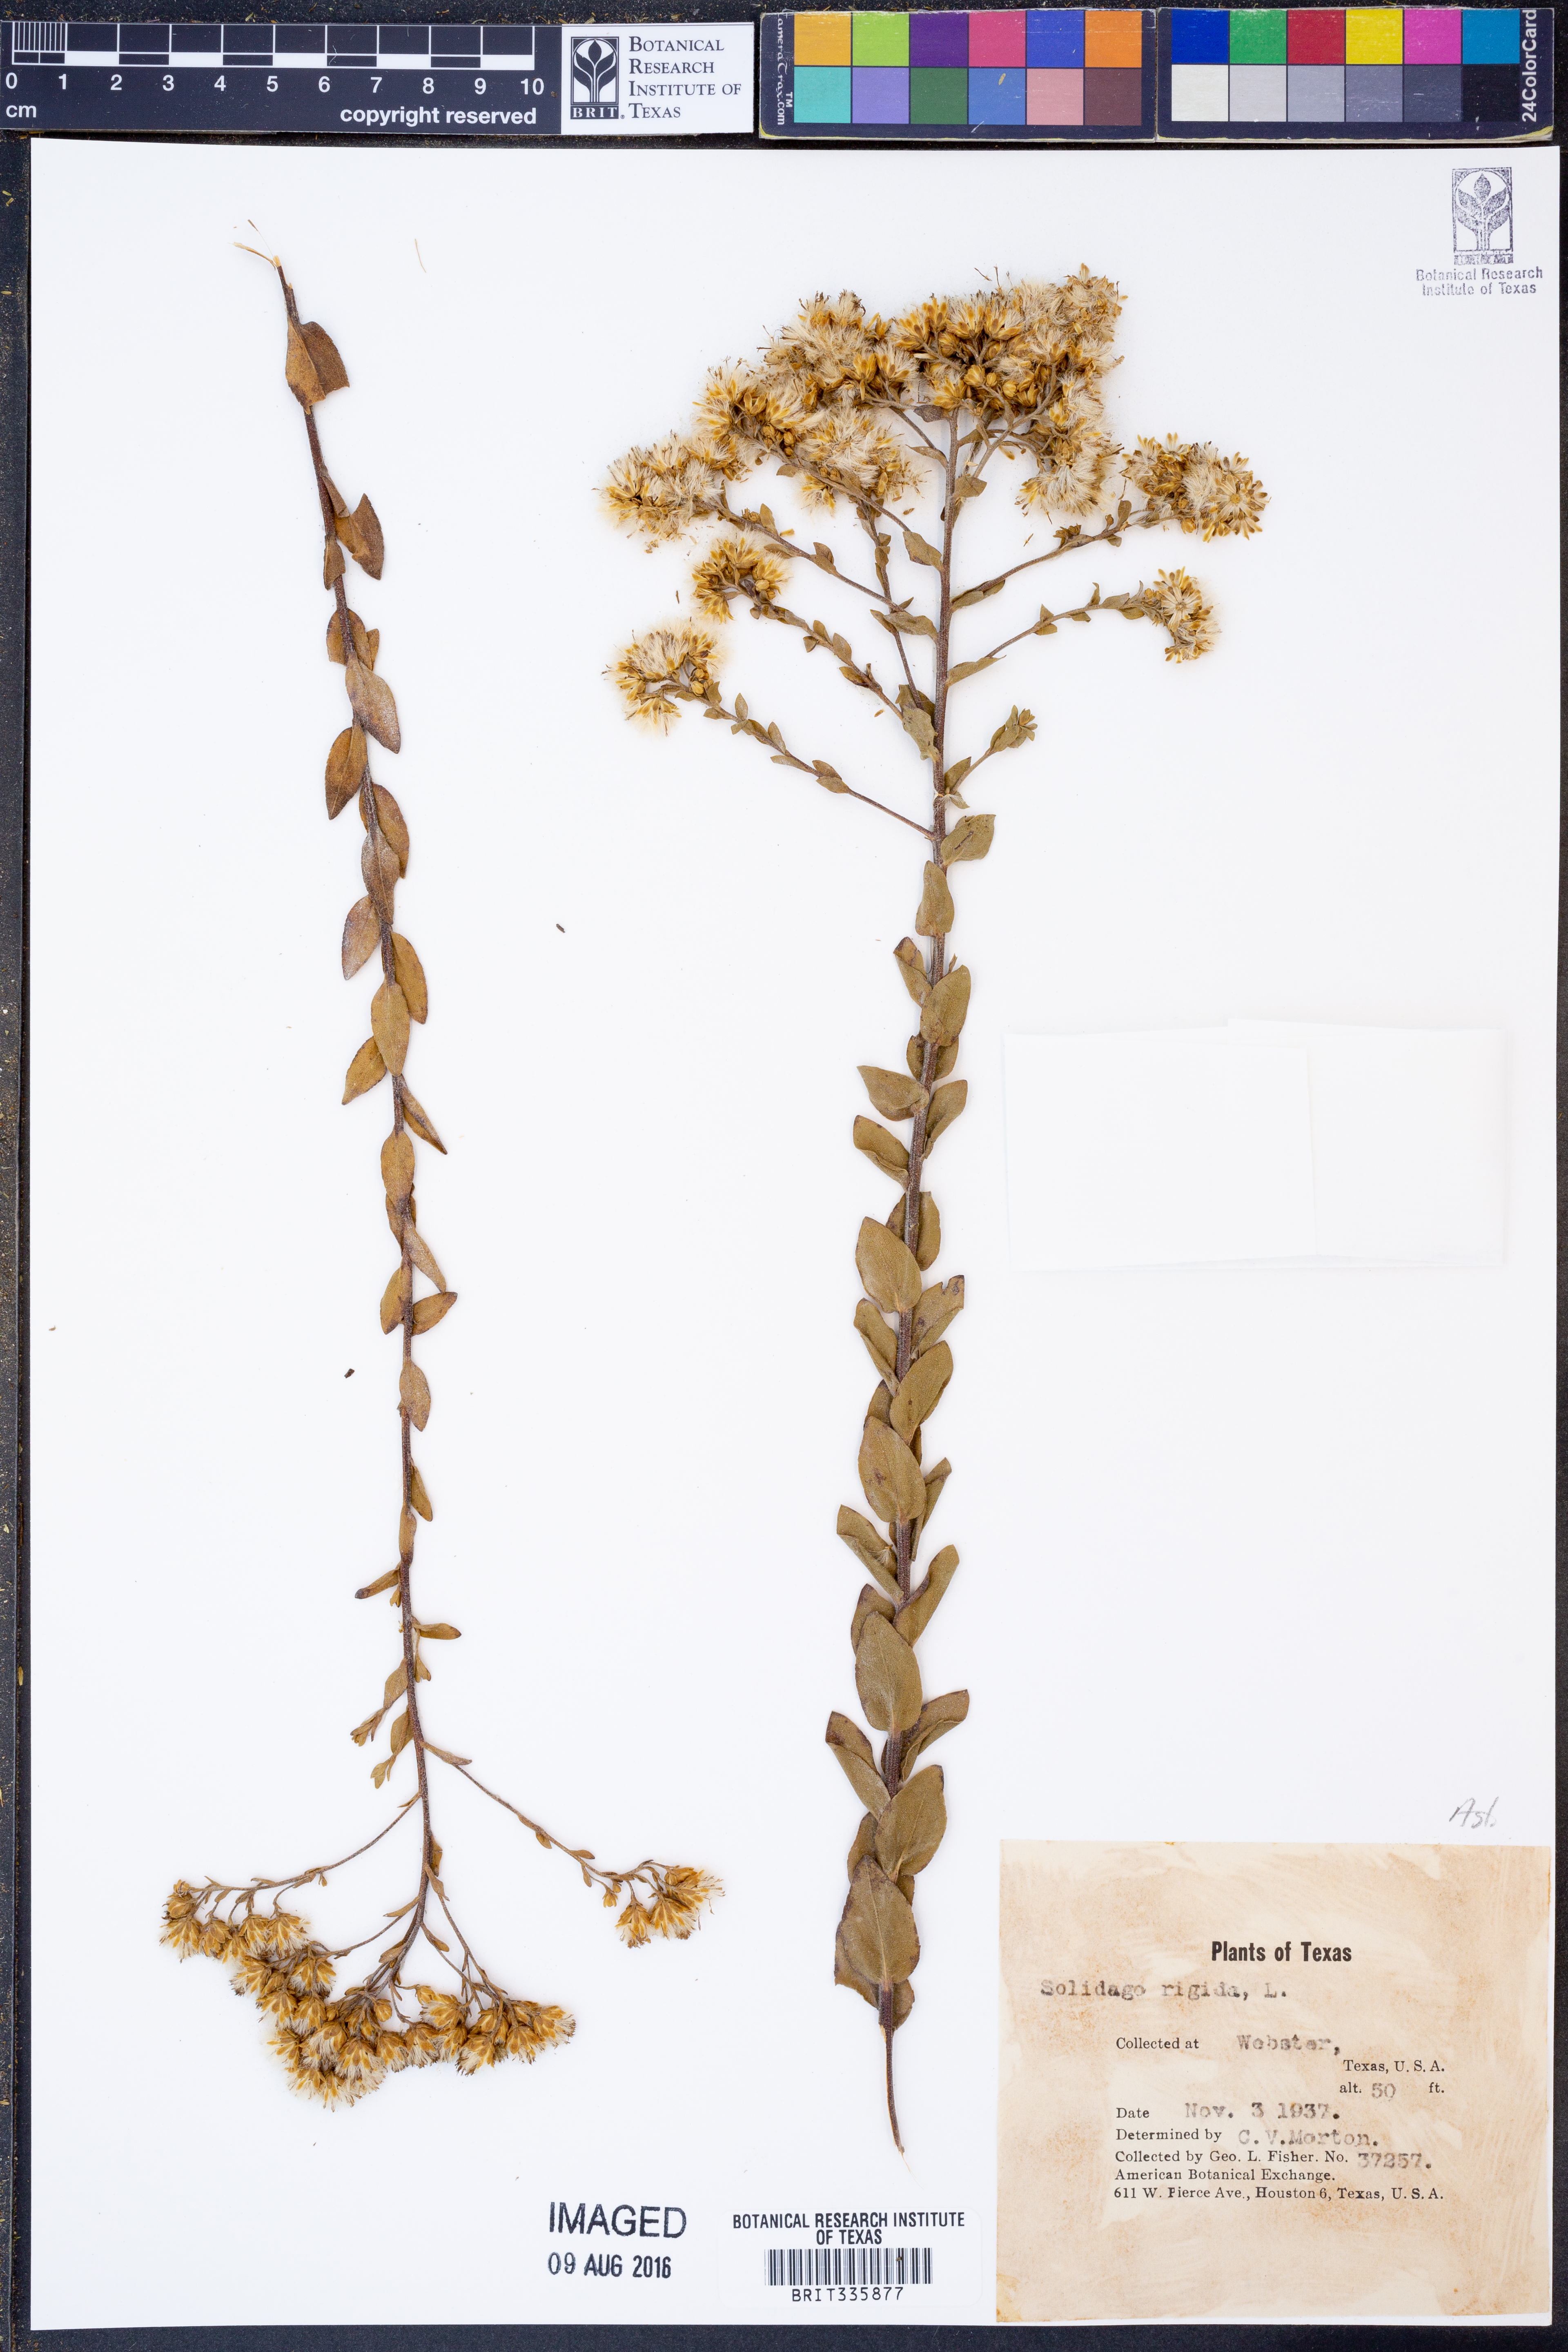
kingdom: Plantae
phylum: Tracheophyta
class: Magnoliopsida
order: Asterales
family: Asteraceae
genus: Solidago
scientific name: Solidago rigida
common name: Rigid goldenrod
